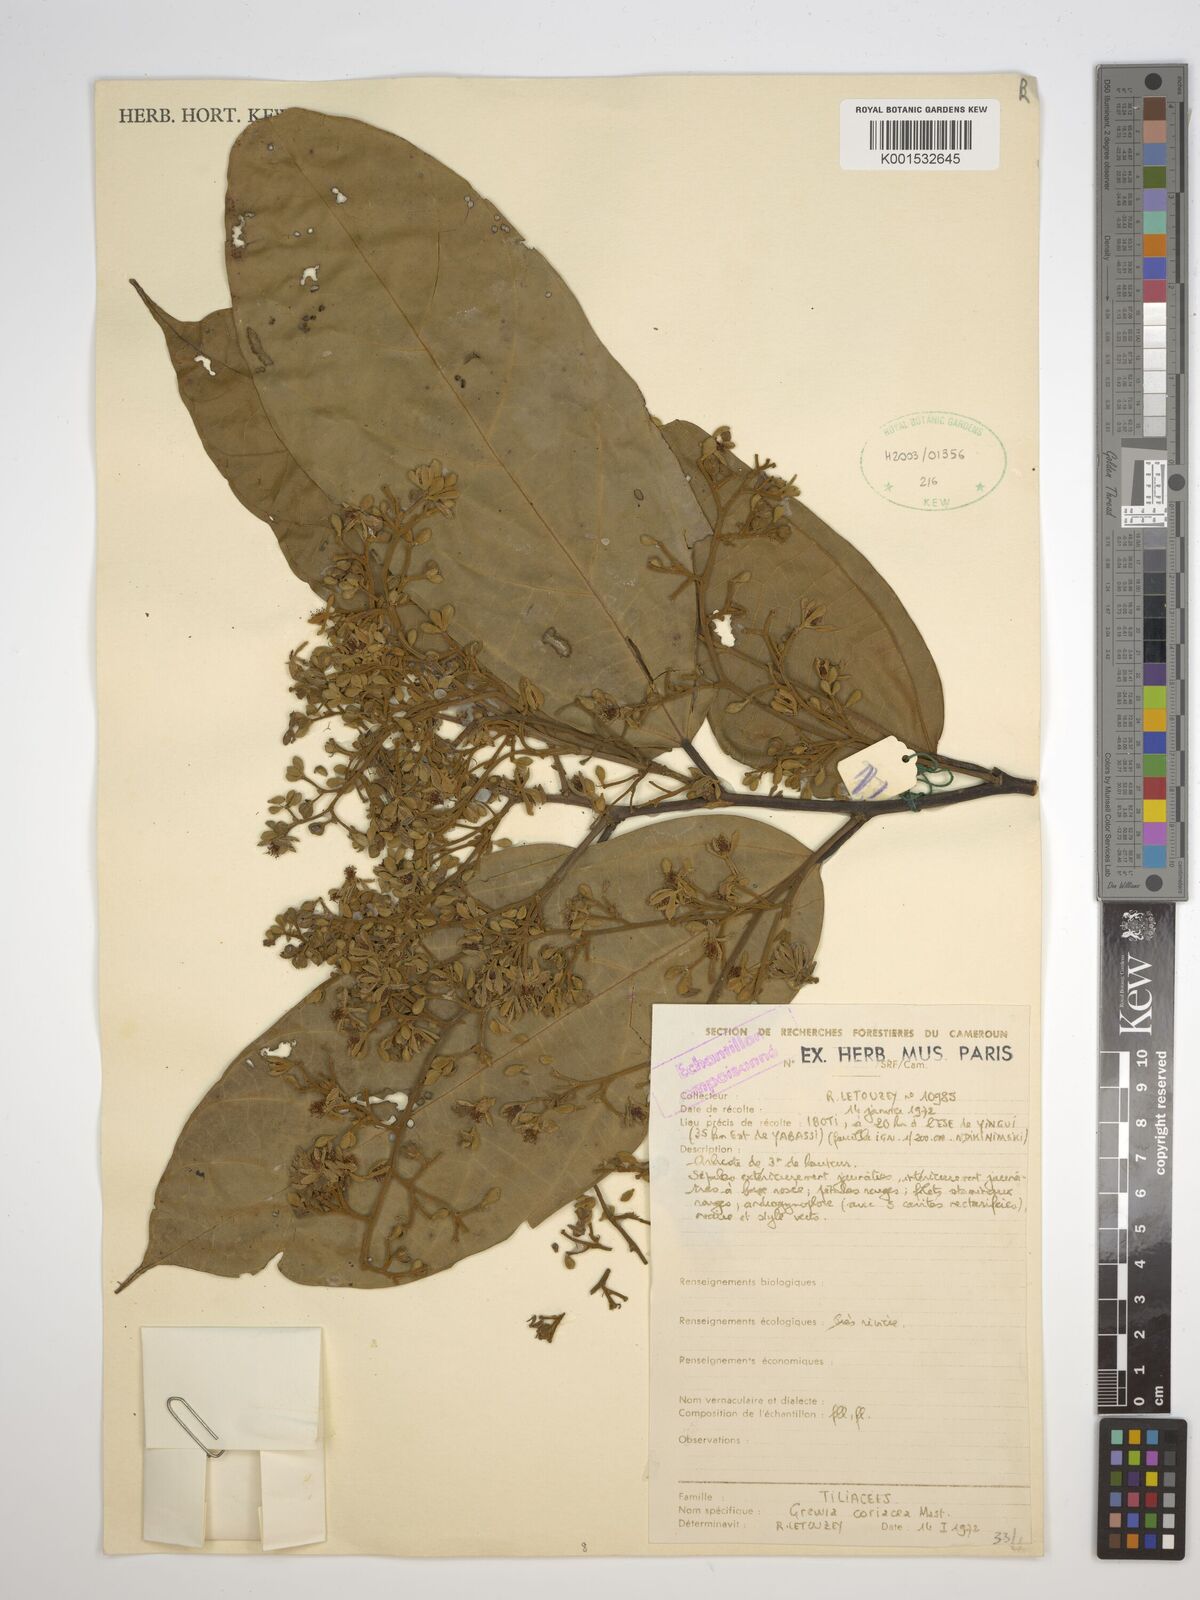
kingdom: Plantae
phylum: Tracheophyta
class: Magnoliopsida
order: Malvales
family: Malvaceae
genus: Microcos
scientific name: Microcos coriacea
